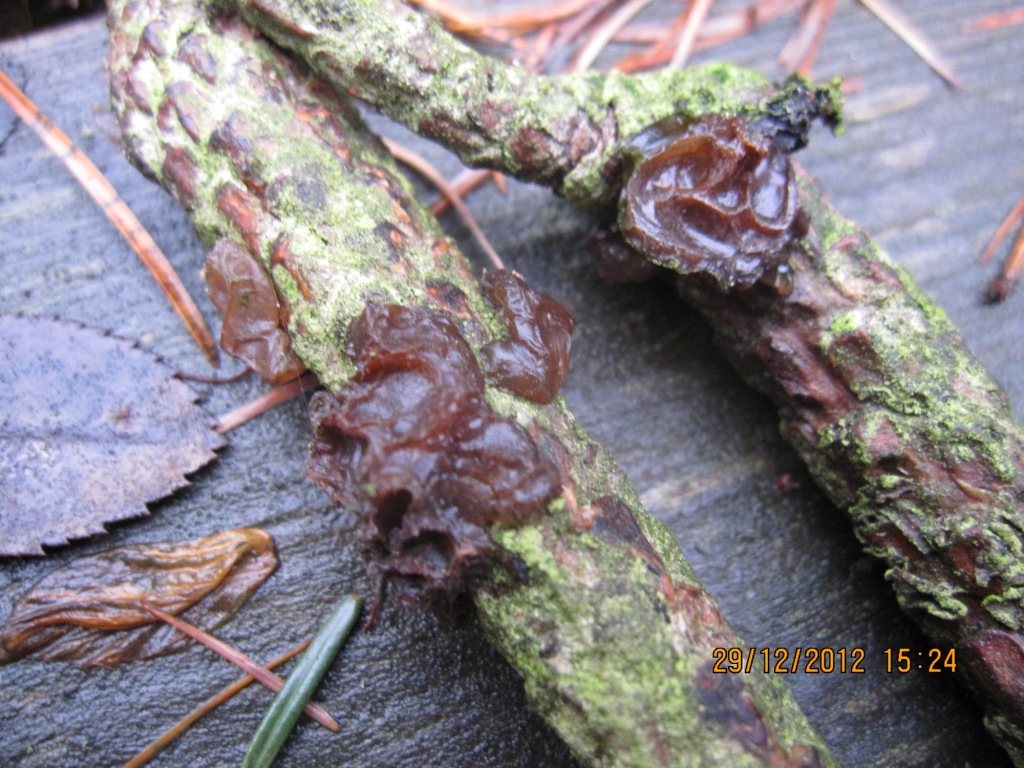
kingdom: Fungi
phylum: Basidiomycota
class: Agaricomycetes
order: Auriculariales
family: Auriculariaceae
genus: Exidia
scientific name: Exidia saccharina
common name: kandis-bævretop
